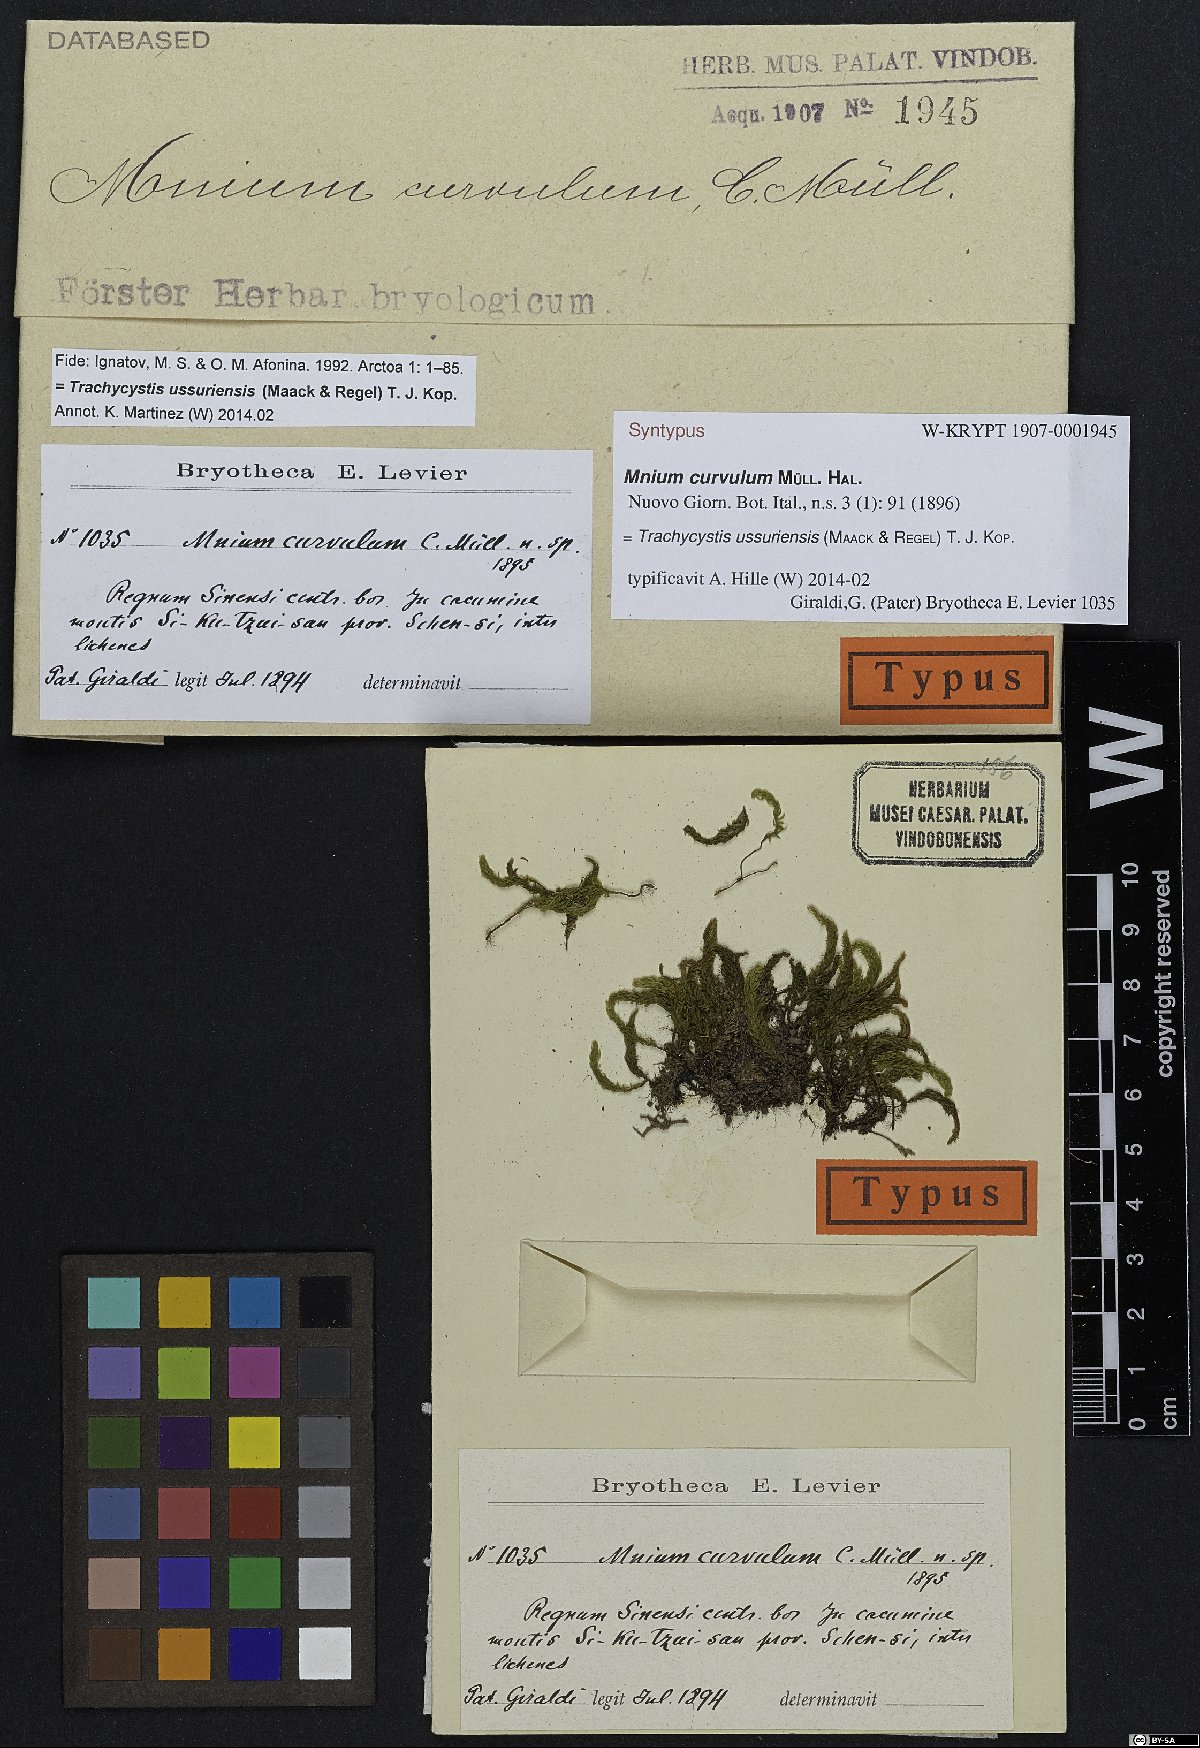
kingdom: Plantae
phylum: Bryophyta
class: Bryopsida
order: Bryales
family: Mniaceae
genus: Trachycystis
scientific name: Trachycystis ussuriensis
